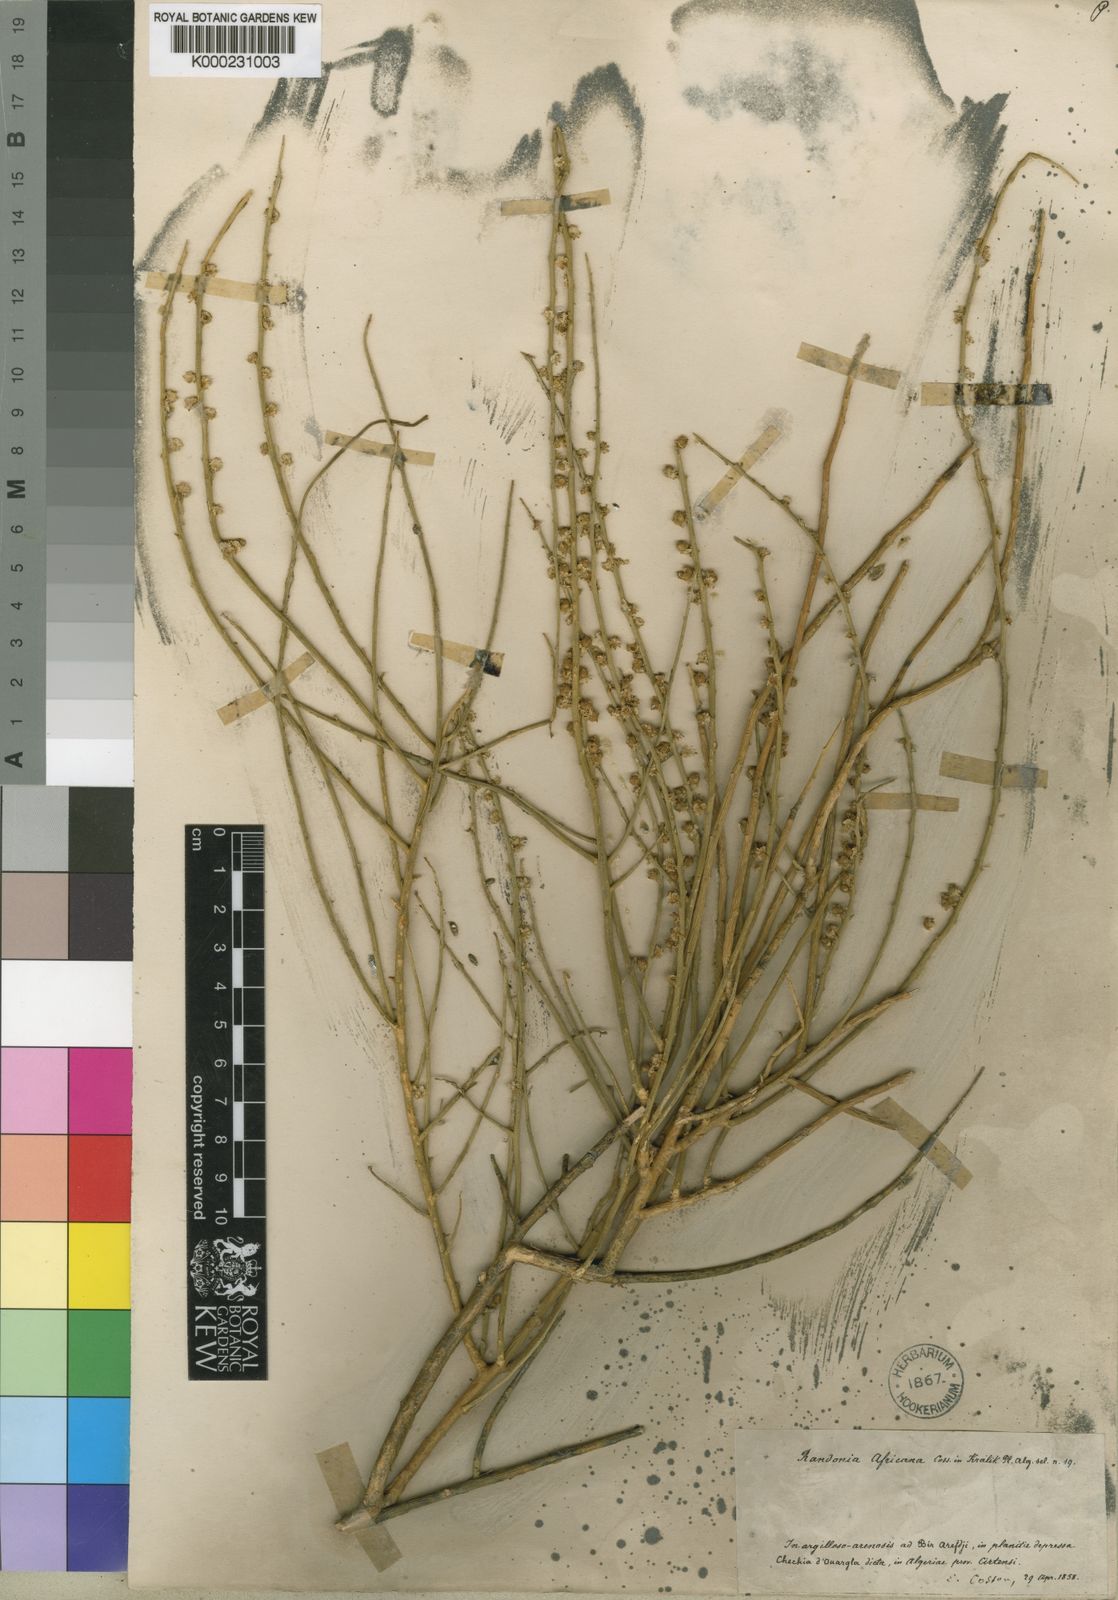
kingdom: Plantae
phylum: Tracheophyta
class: Magnoliopsida
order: Brassicales
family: Resedaceae
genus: Randonia
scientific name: Randonia
